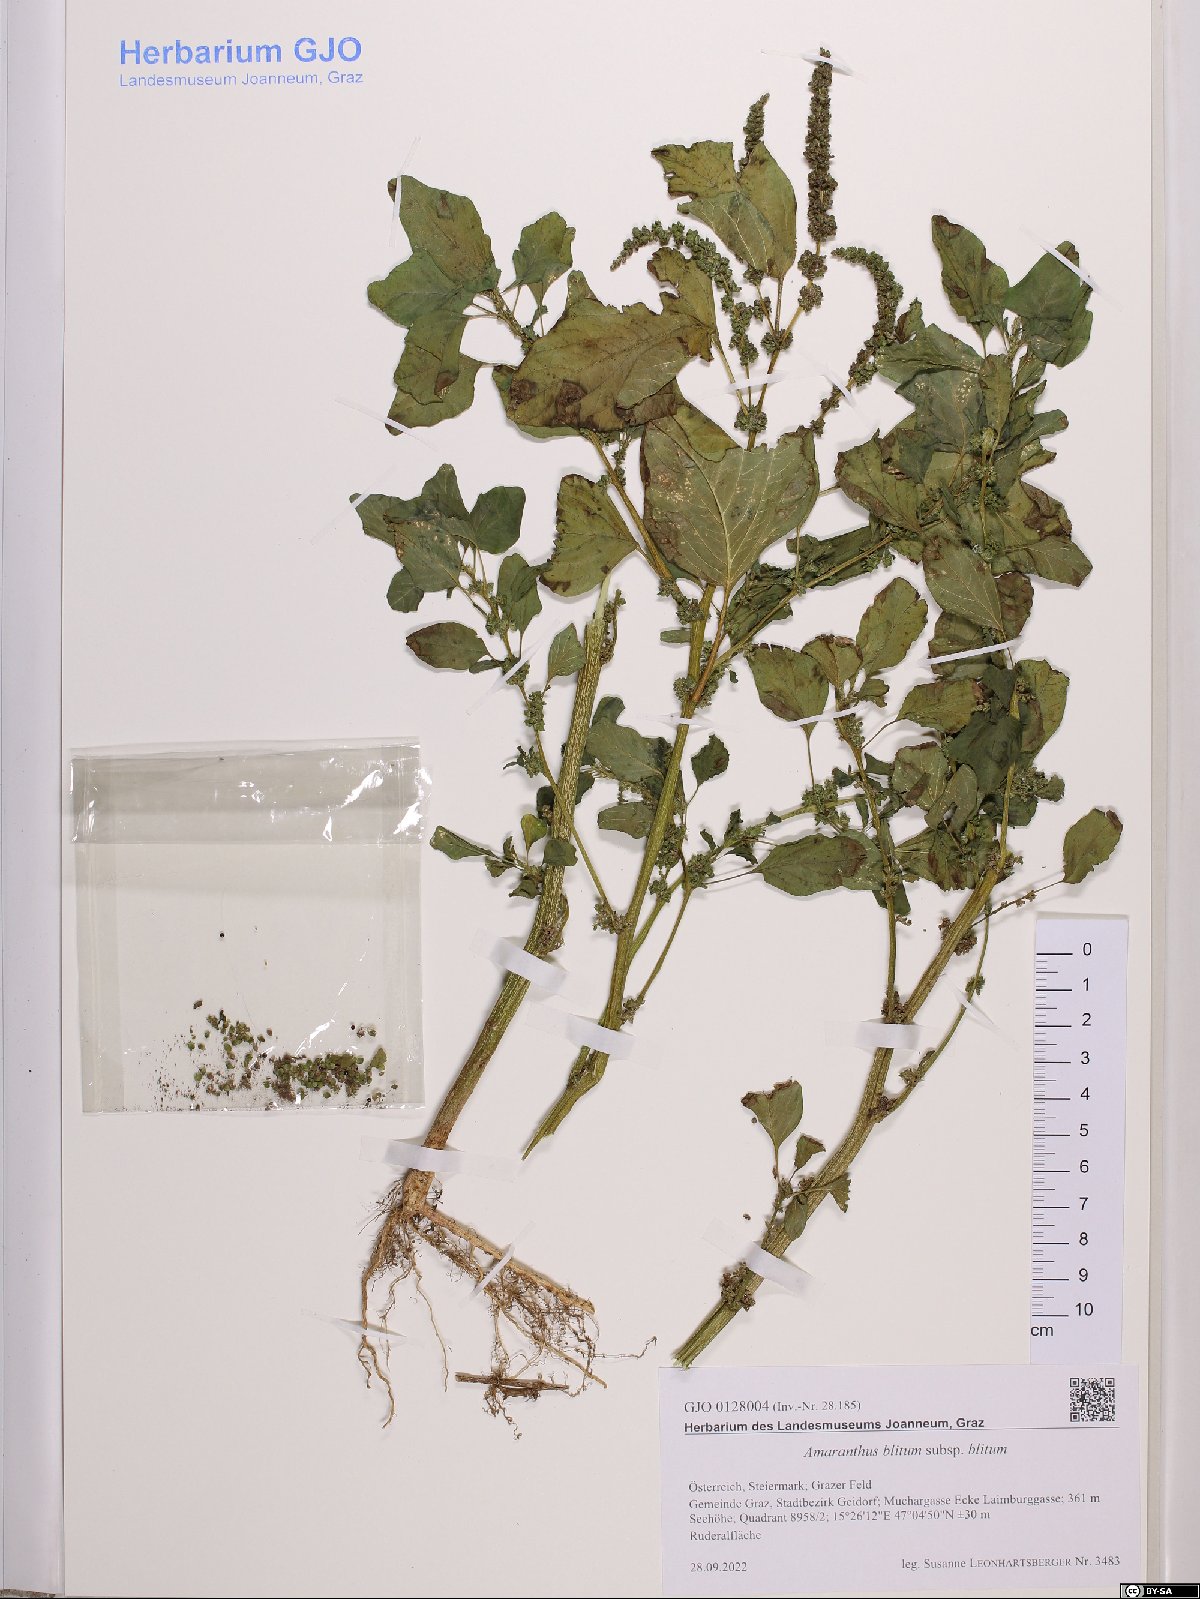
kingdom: Plantae
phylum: Tracheophyta
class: Magnoliopsida
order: Caryophyllales
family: Amaranthaceae
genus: Amaranthus
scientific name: Amaranthus blitum
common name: Purple amaranth
